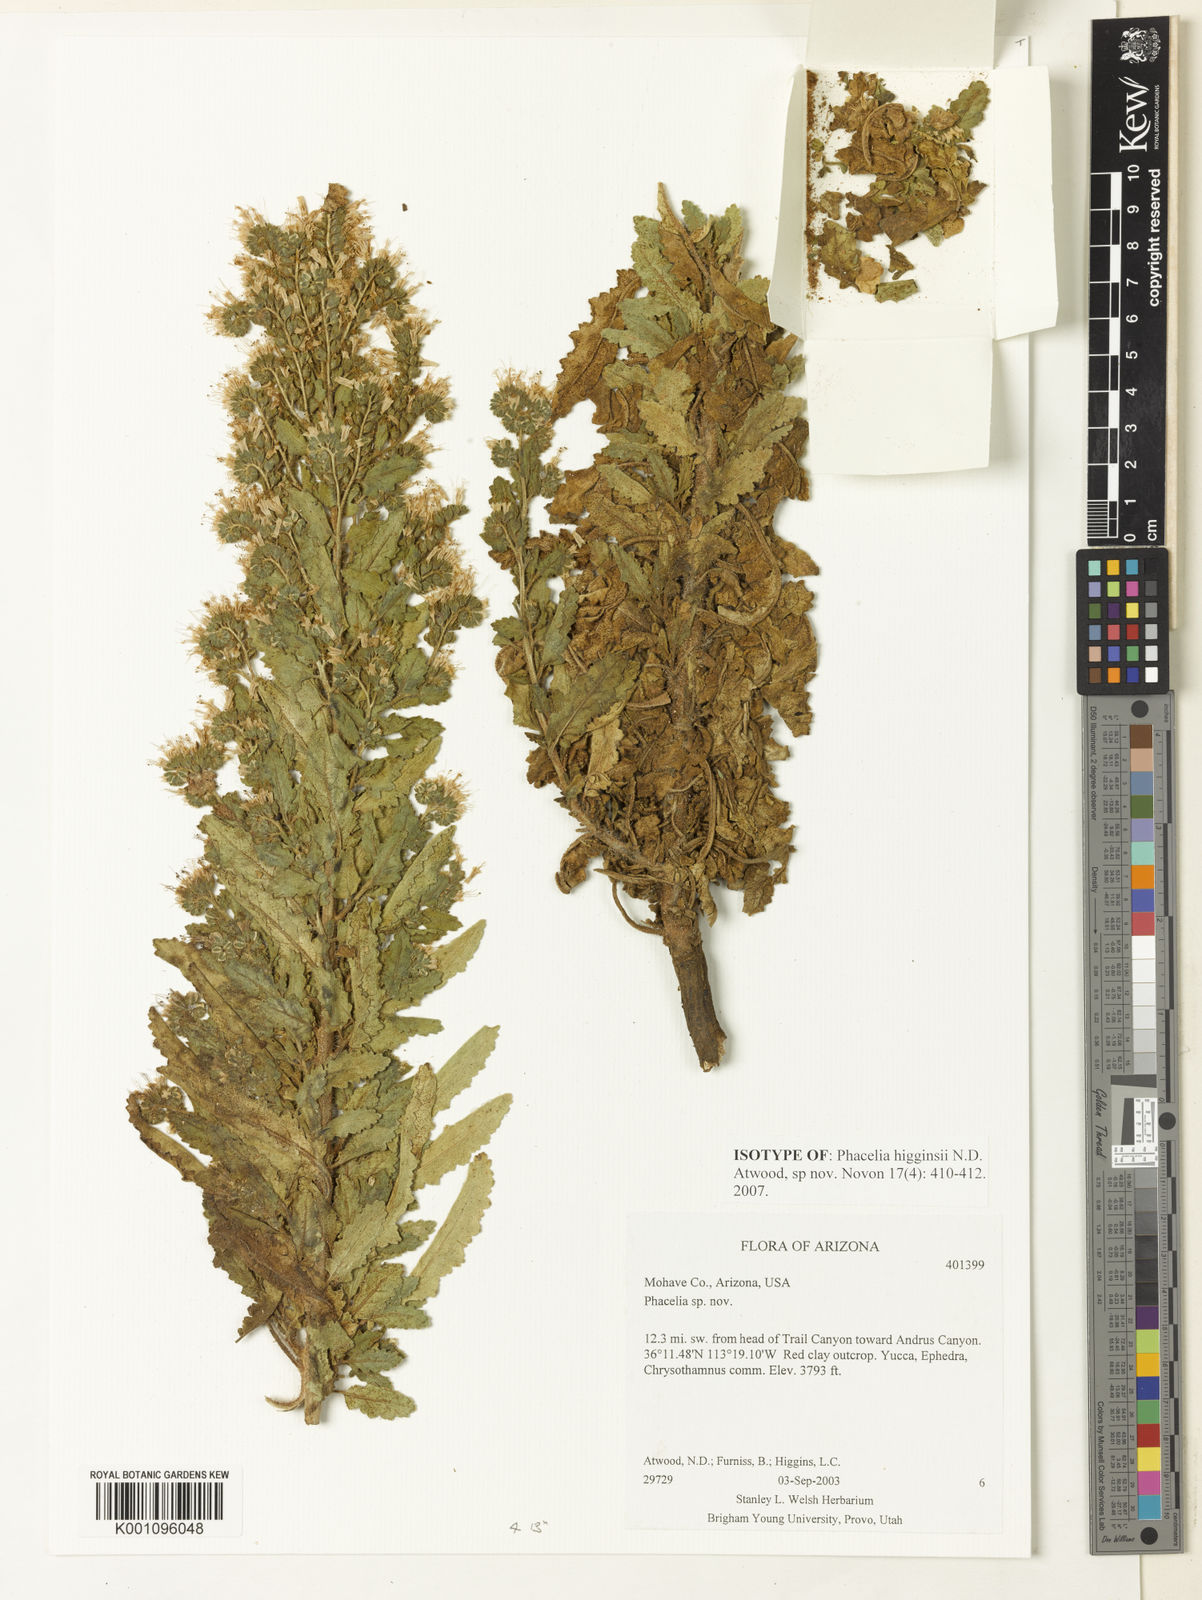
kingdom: Plantae
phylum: Tracheophyta
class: Magnoliopsida
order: Boraginales
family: Hydrophyllaceae
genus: Phacelia
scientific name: Phacelia higginsii
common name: Higgins' phacelia
